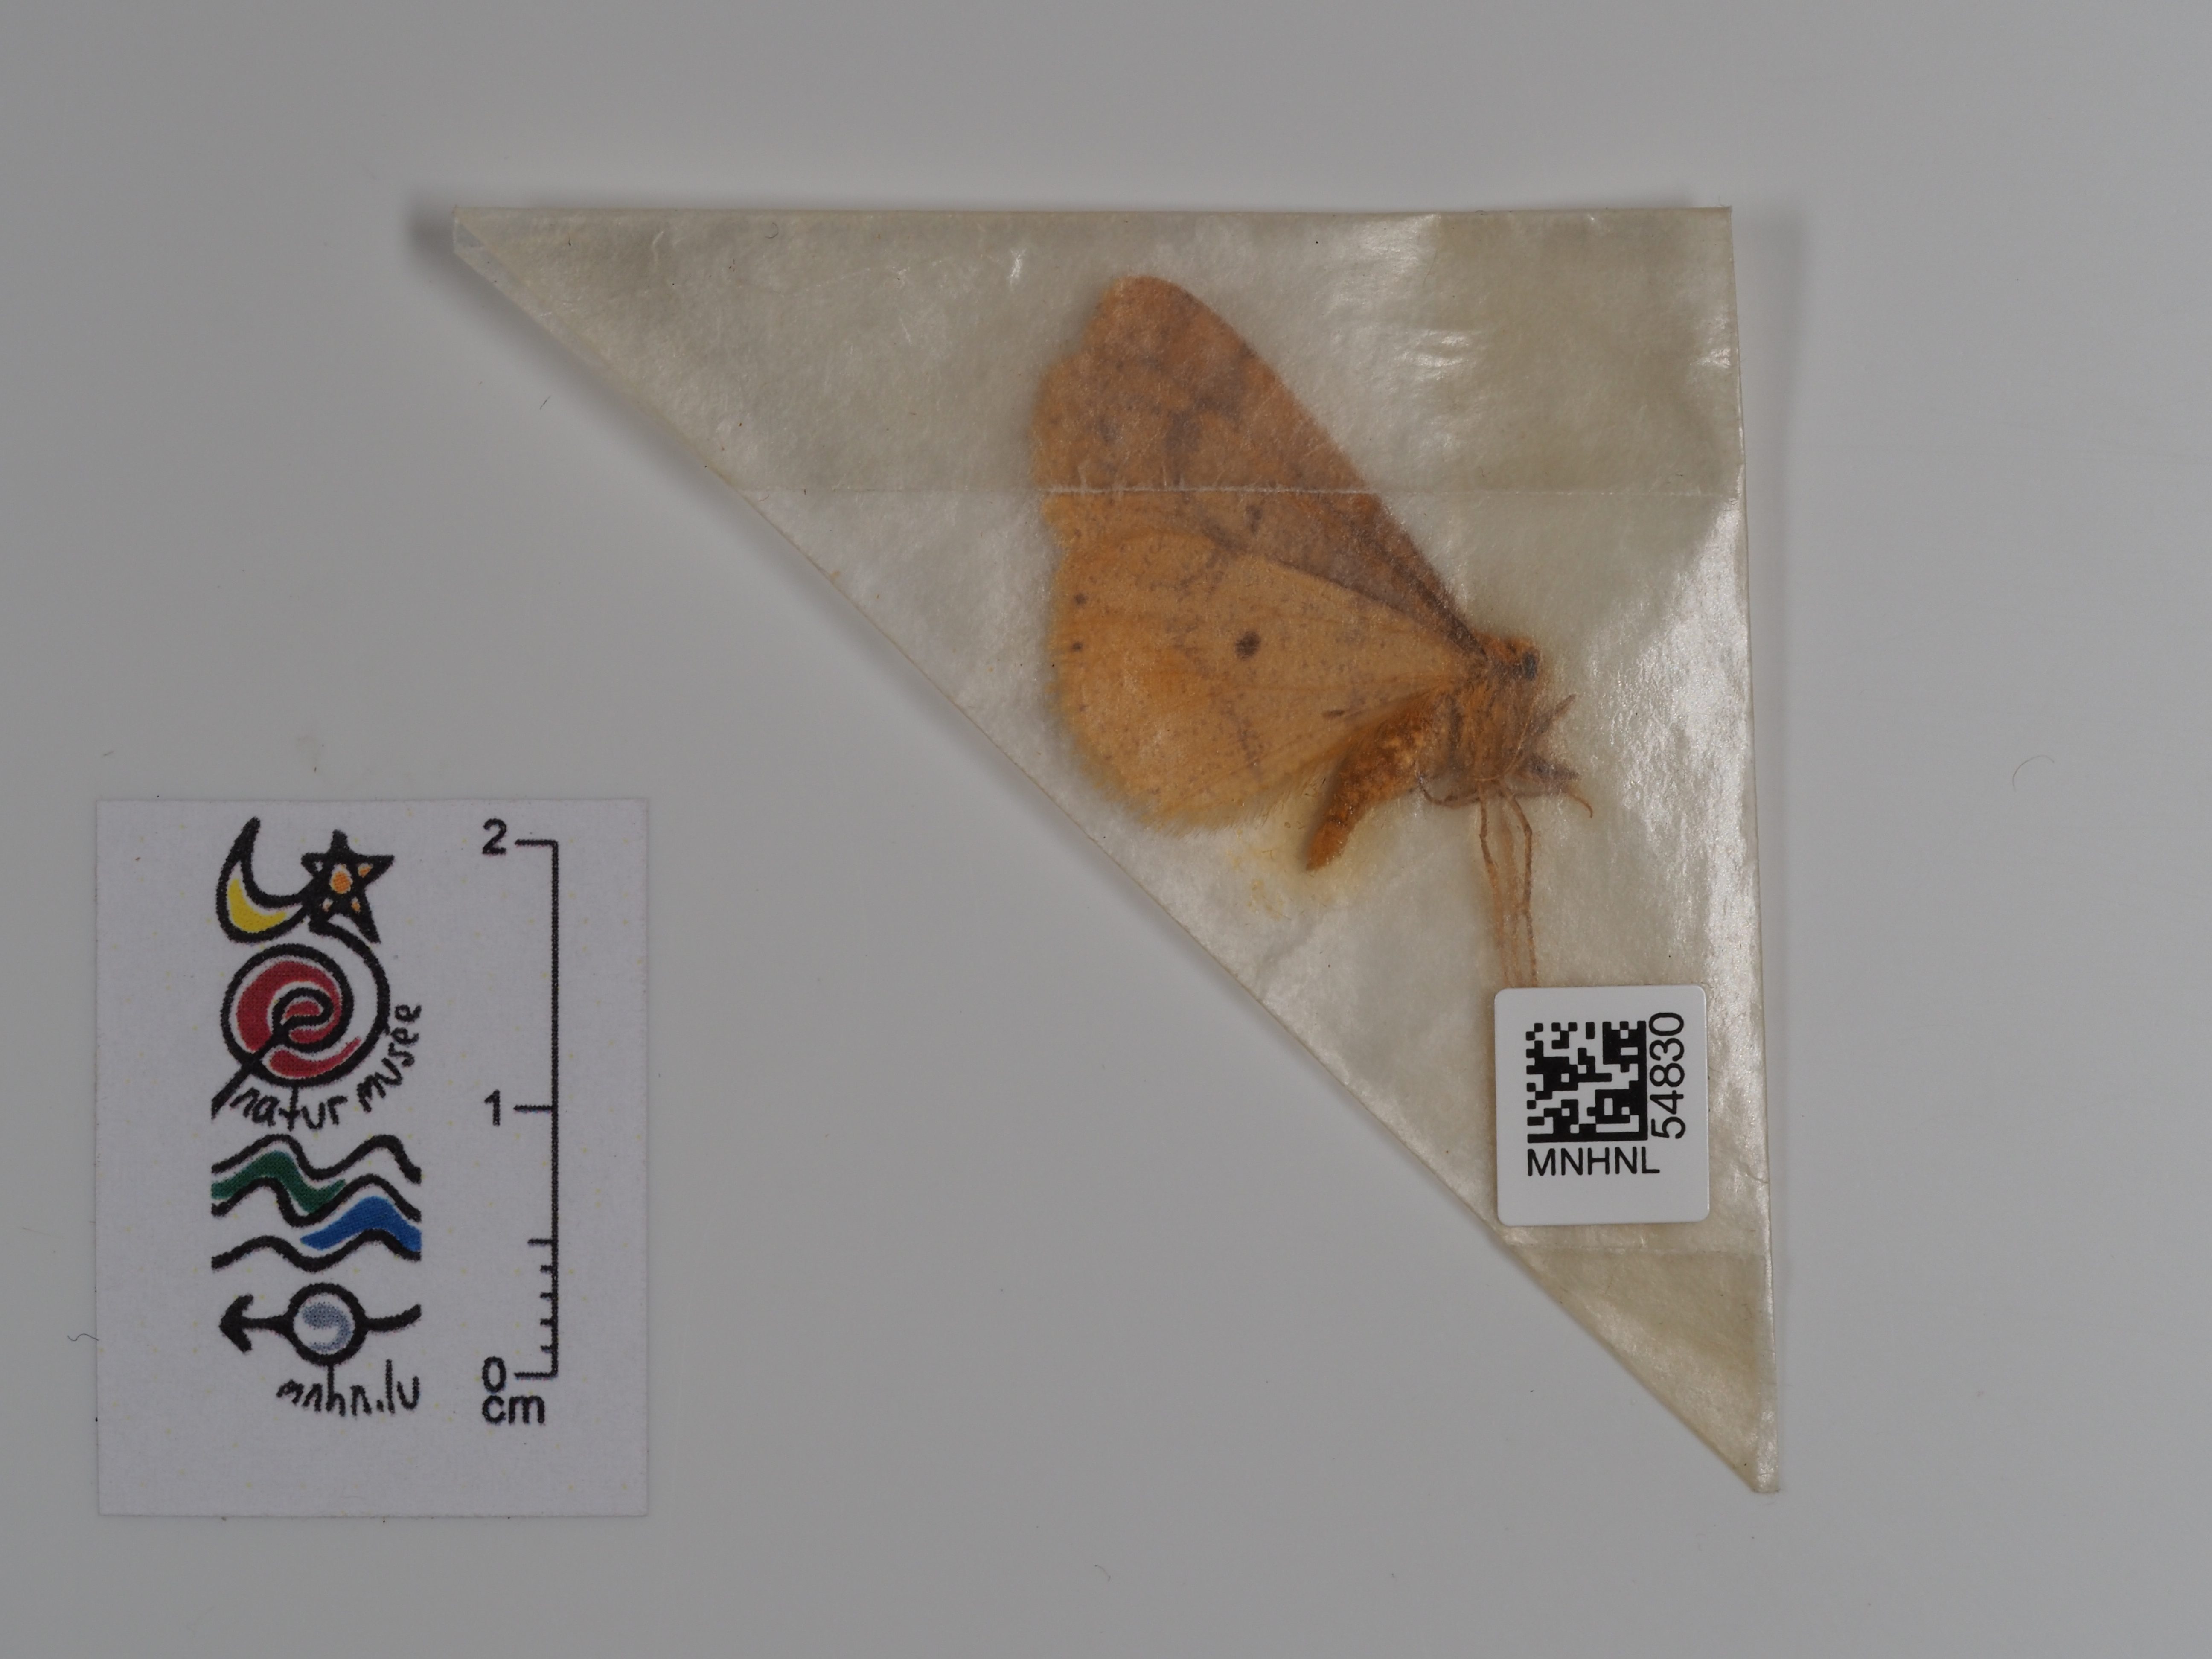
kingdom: Animalia
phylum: Arthropoda
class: Insecta
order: Lepidoptera
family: Geometridae
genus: Agriopis
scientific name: Agriopis aurantiaria
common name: Scarce umber
